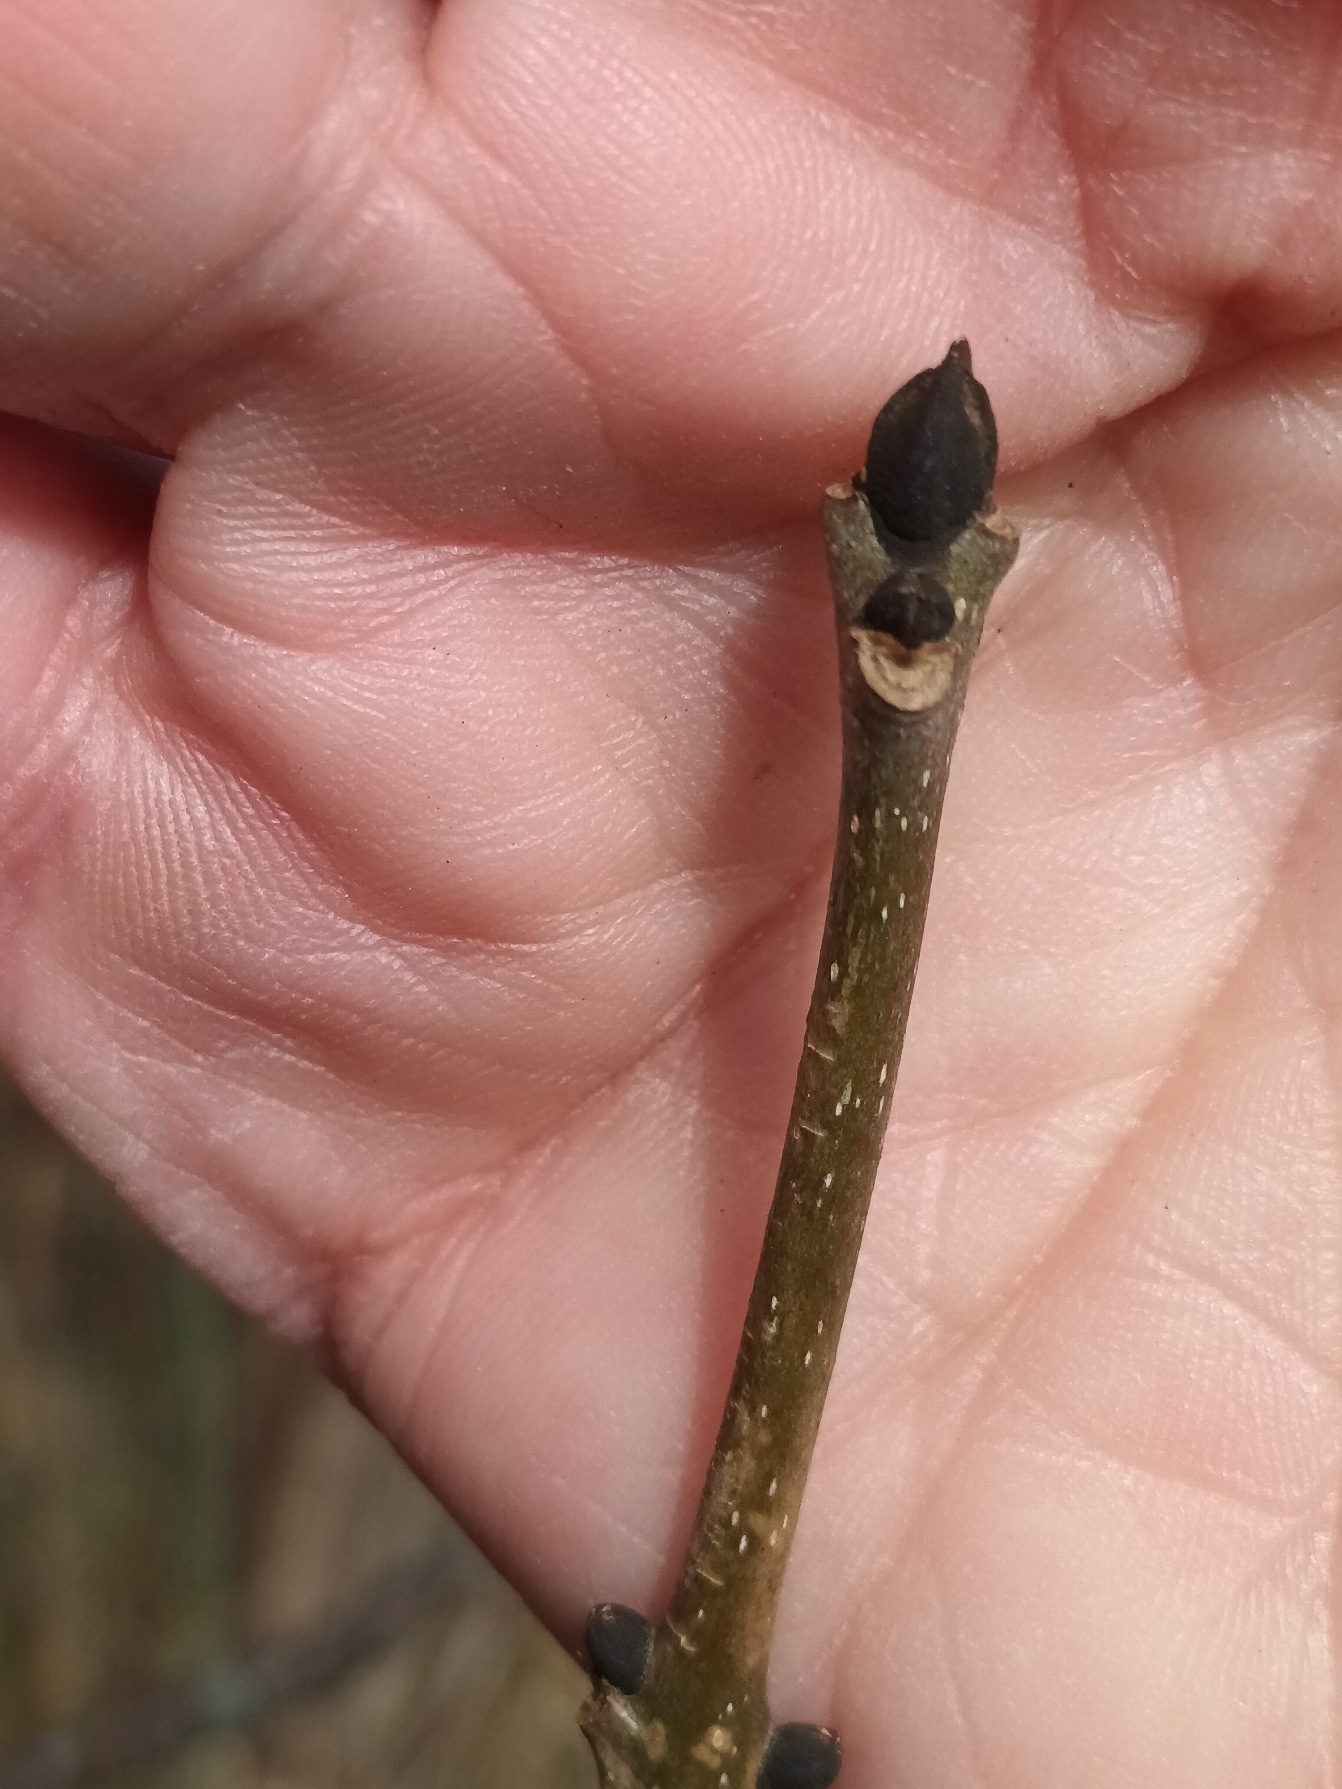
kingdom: Plantae
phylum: Tracheophyta
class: Magnoliopsida
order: Lamiales
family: Oleaceae
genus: Fraxinus
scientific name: Fraxinus excelsior
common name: Ask
